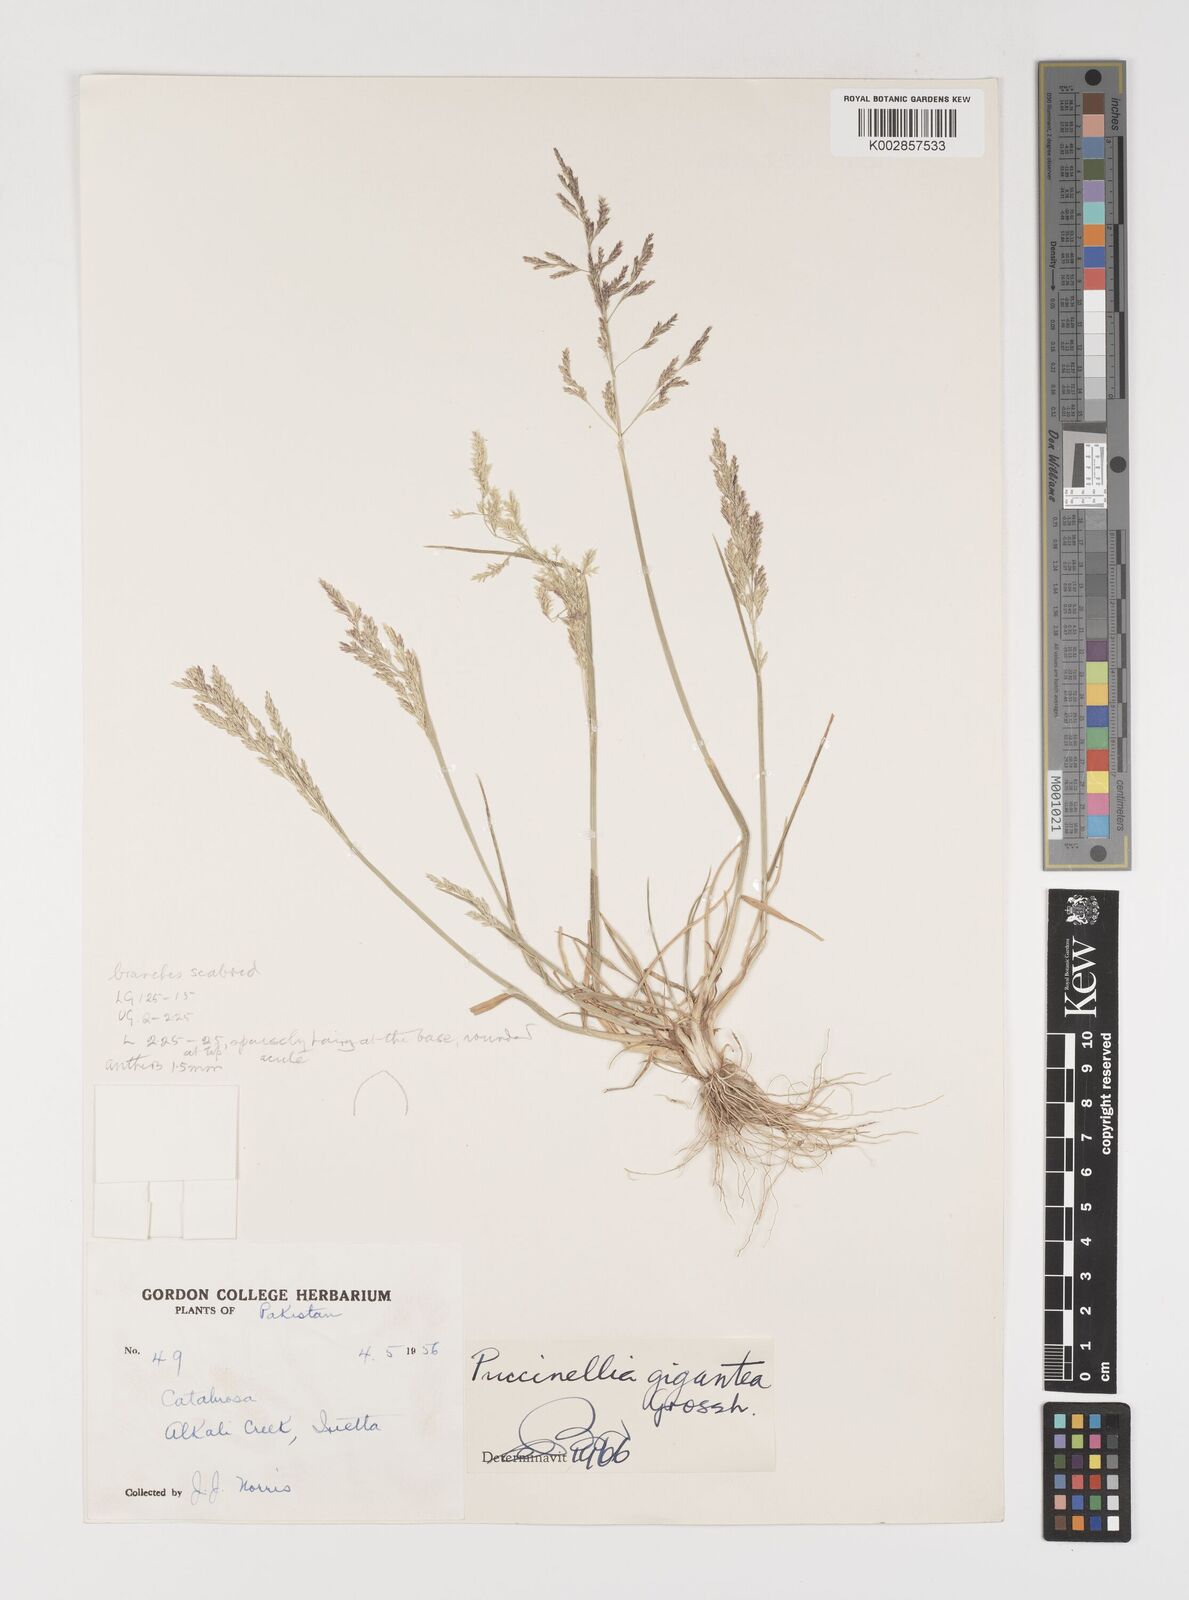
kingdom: Plantae
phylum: Tracheophyta
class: Liliopsida
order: Poales
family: Poaceae
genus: Puccinellia
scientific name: Puccinellia gigantea
